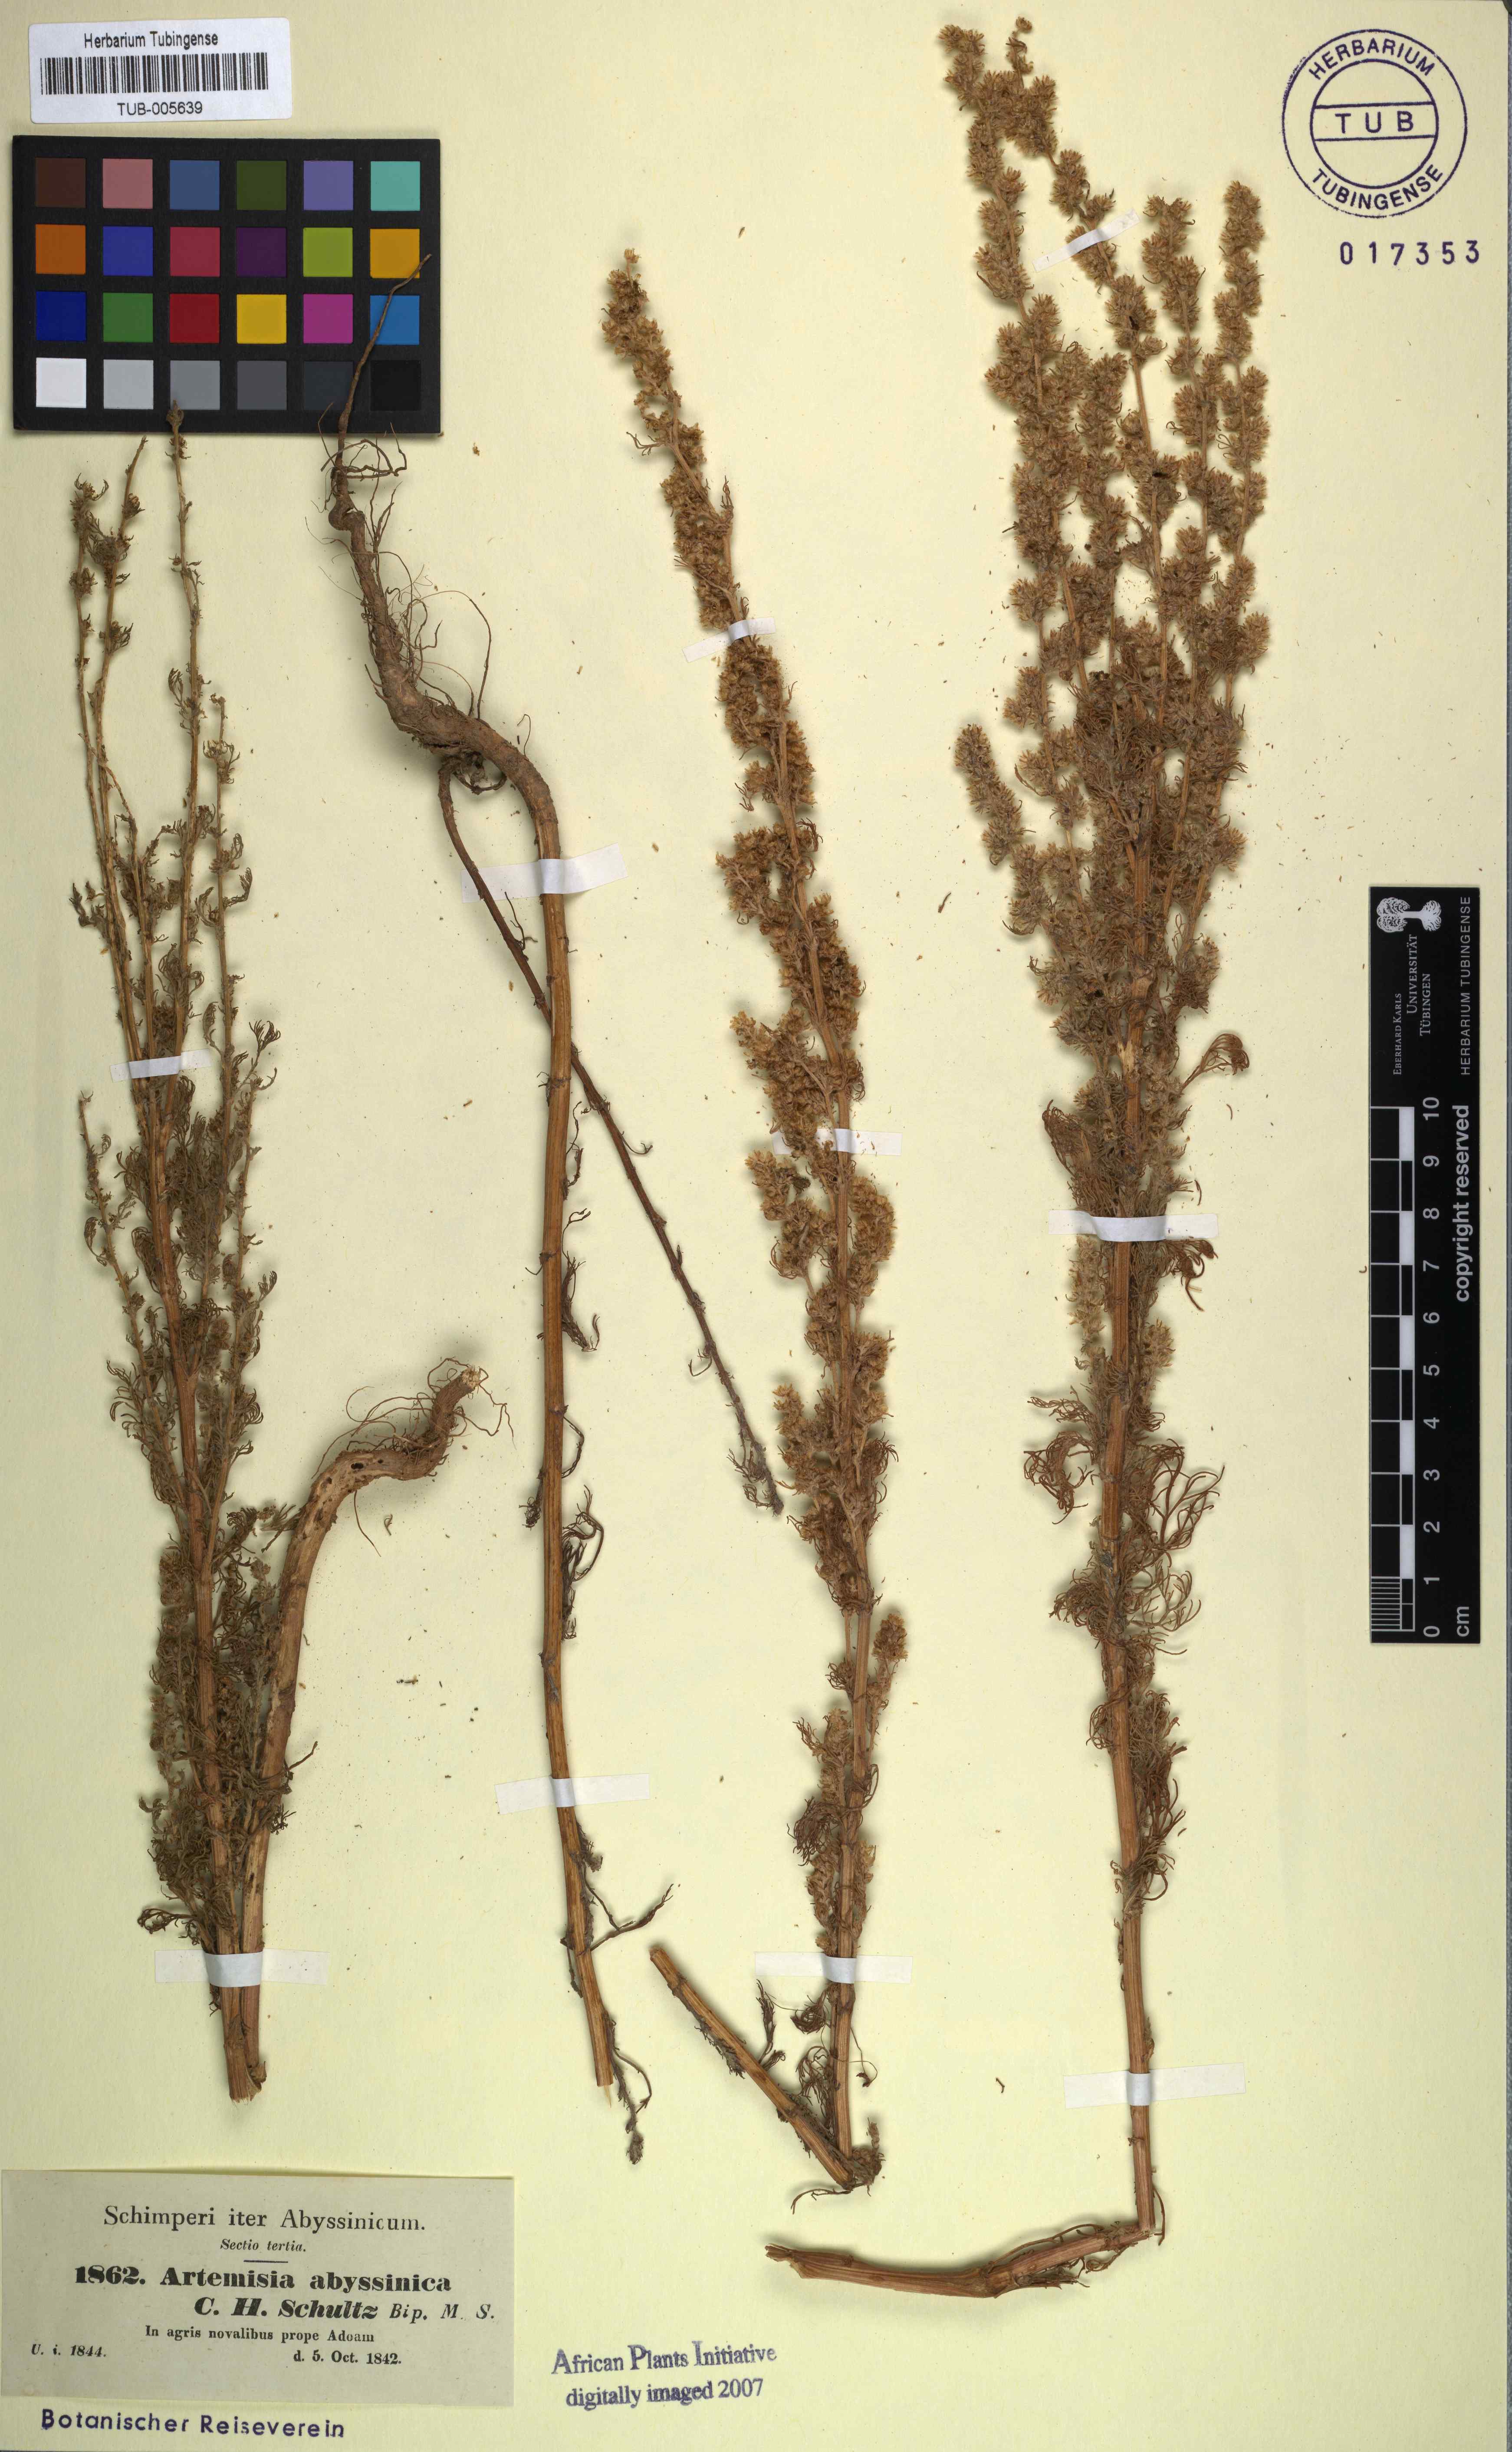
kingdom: Plantae
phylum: Tracheophyta
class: Magnoliopsida
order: Asterales
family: Asteraceae
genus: Artemisia
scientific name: Artemisia abyssinica
